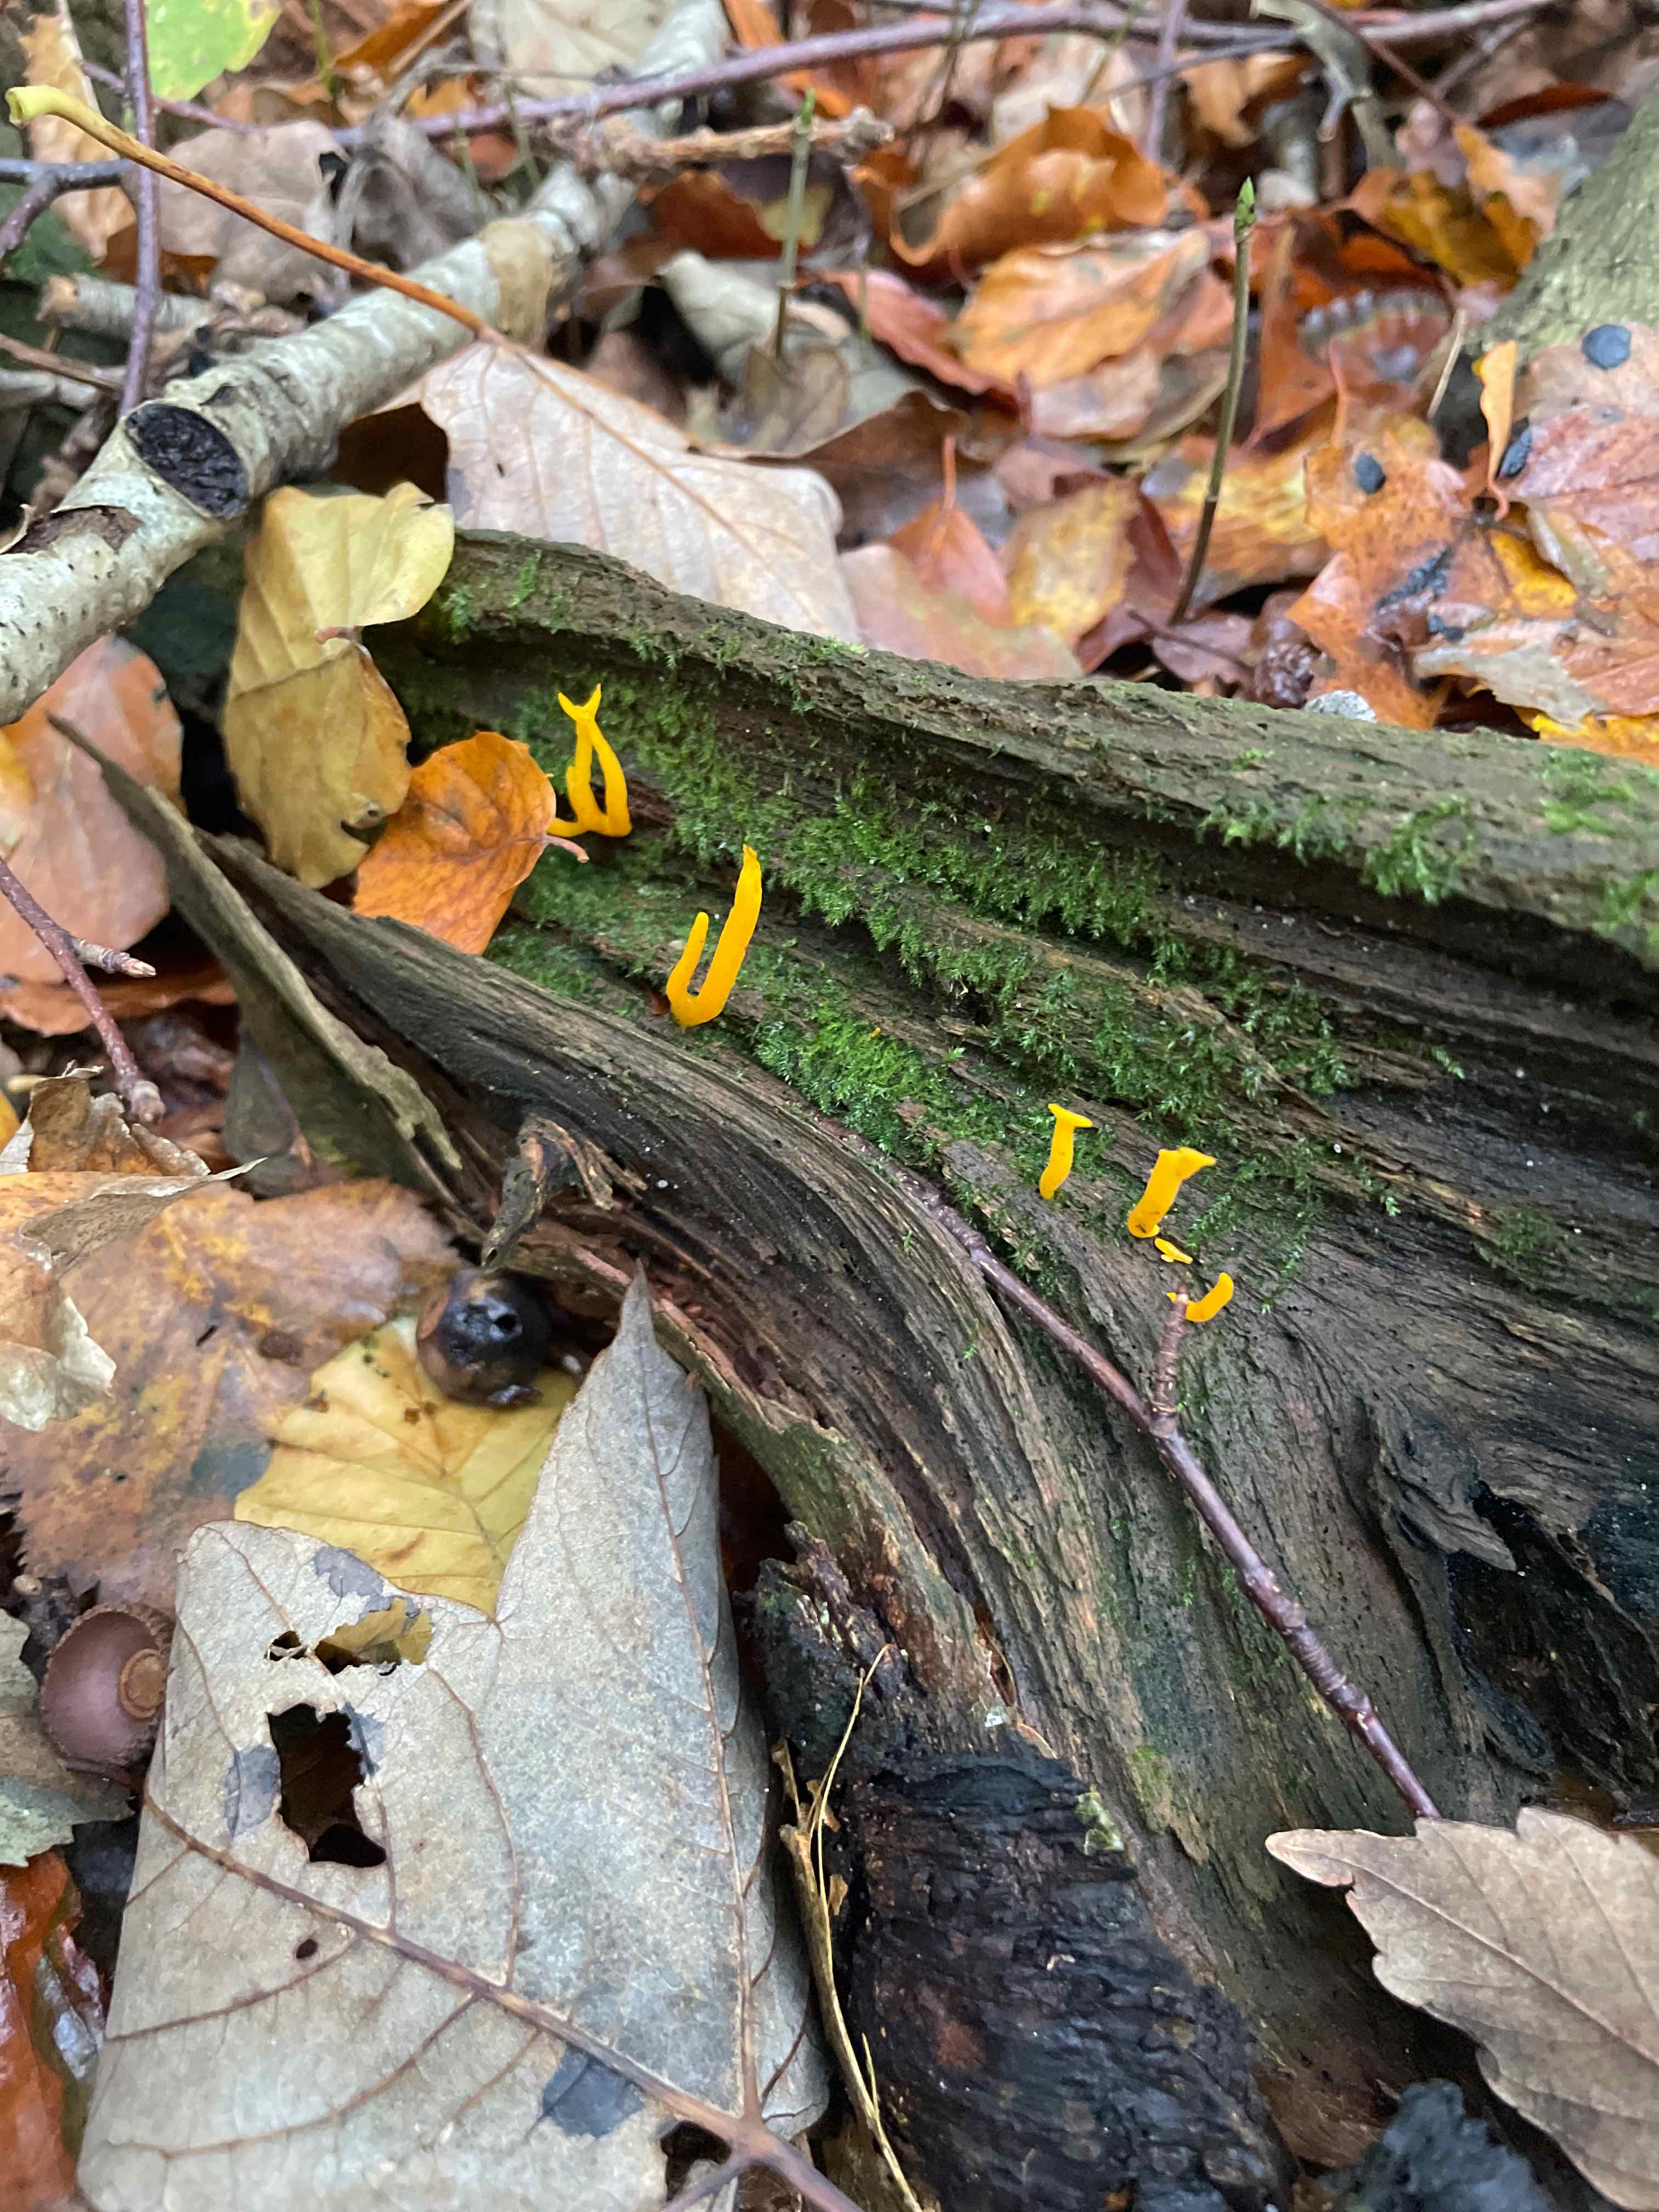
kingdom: Fungi
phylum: Basidiomycota
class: Dacrymycetes
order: Dacrymycetales
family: Dacrymycetaceae
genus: Calocera
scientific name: Calocera viscosa
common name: almindelig guldgaffel
